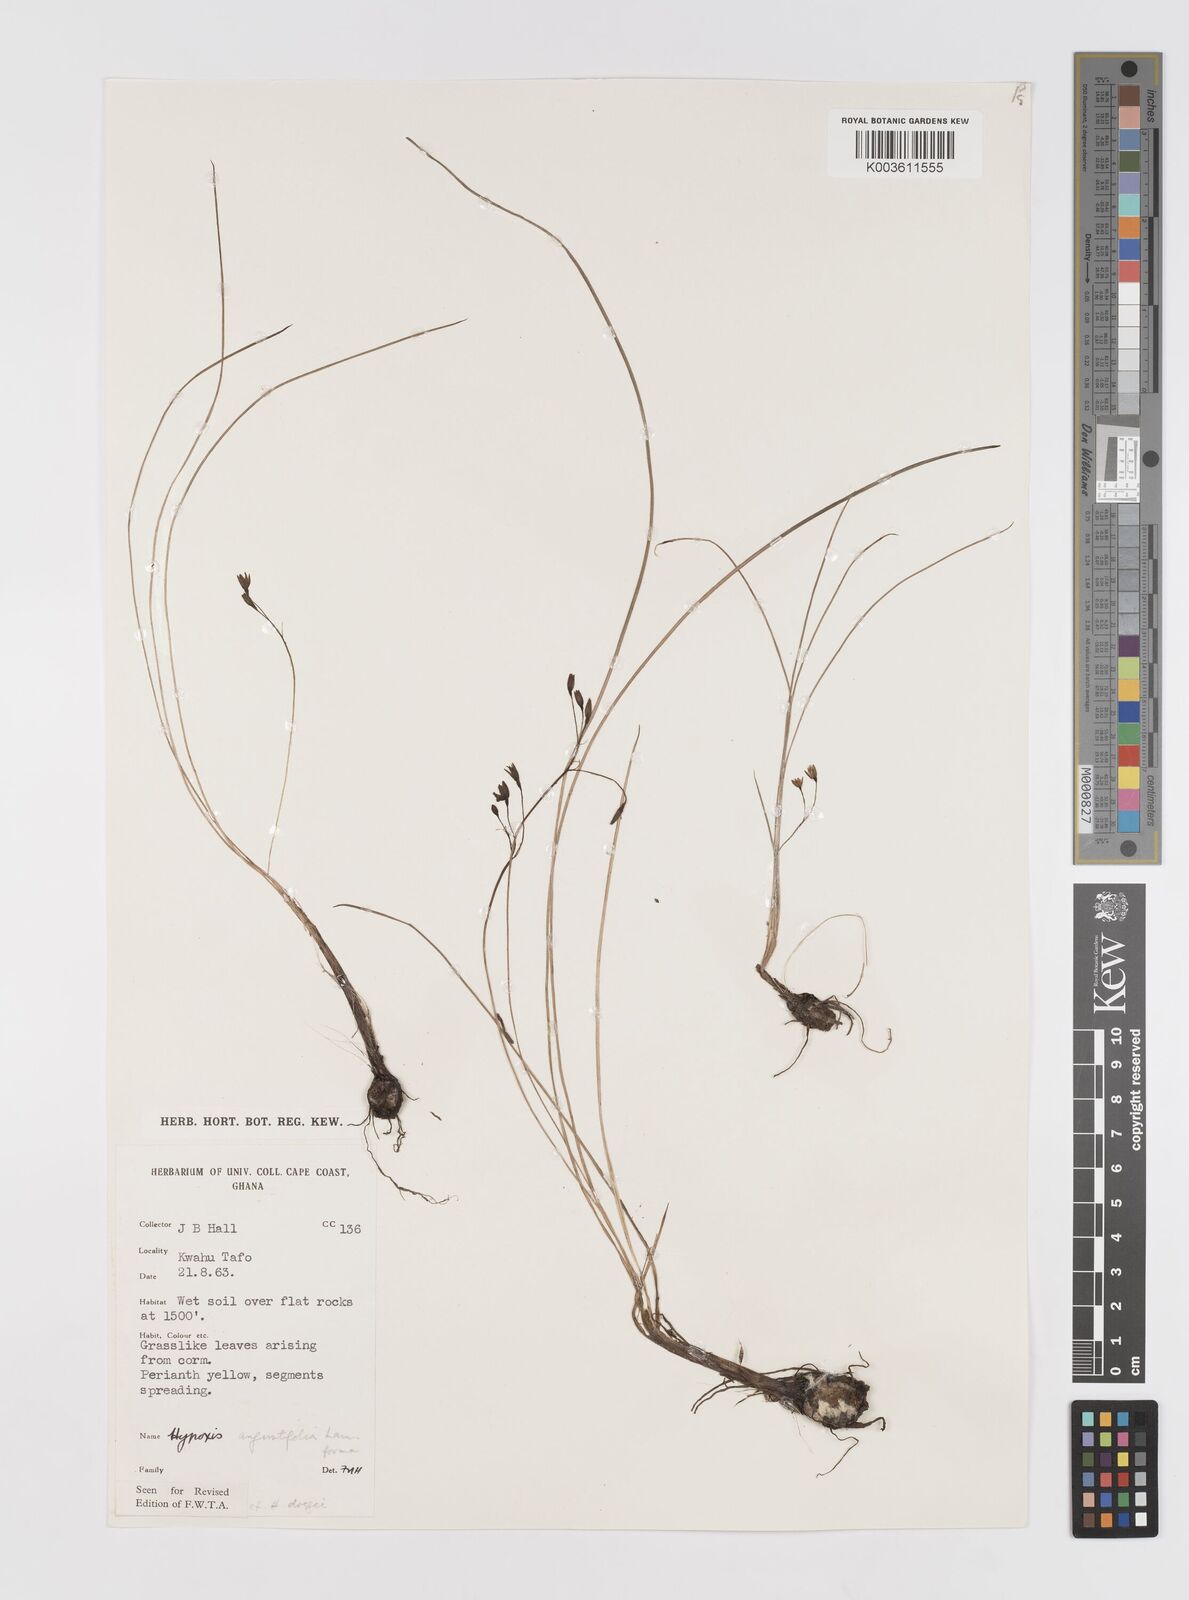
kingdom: Plantae
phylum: Tracheophyta
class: Liliopsida
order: Asparagales
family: Hypoxidaceae
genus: Hypoxis
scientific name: Hypoxis angustifolia
